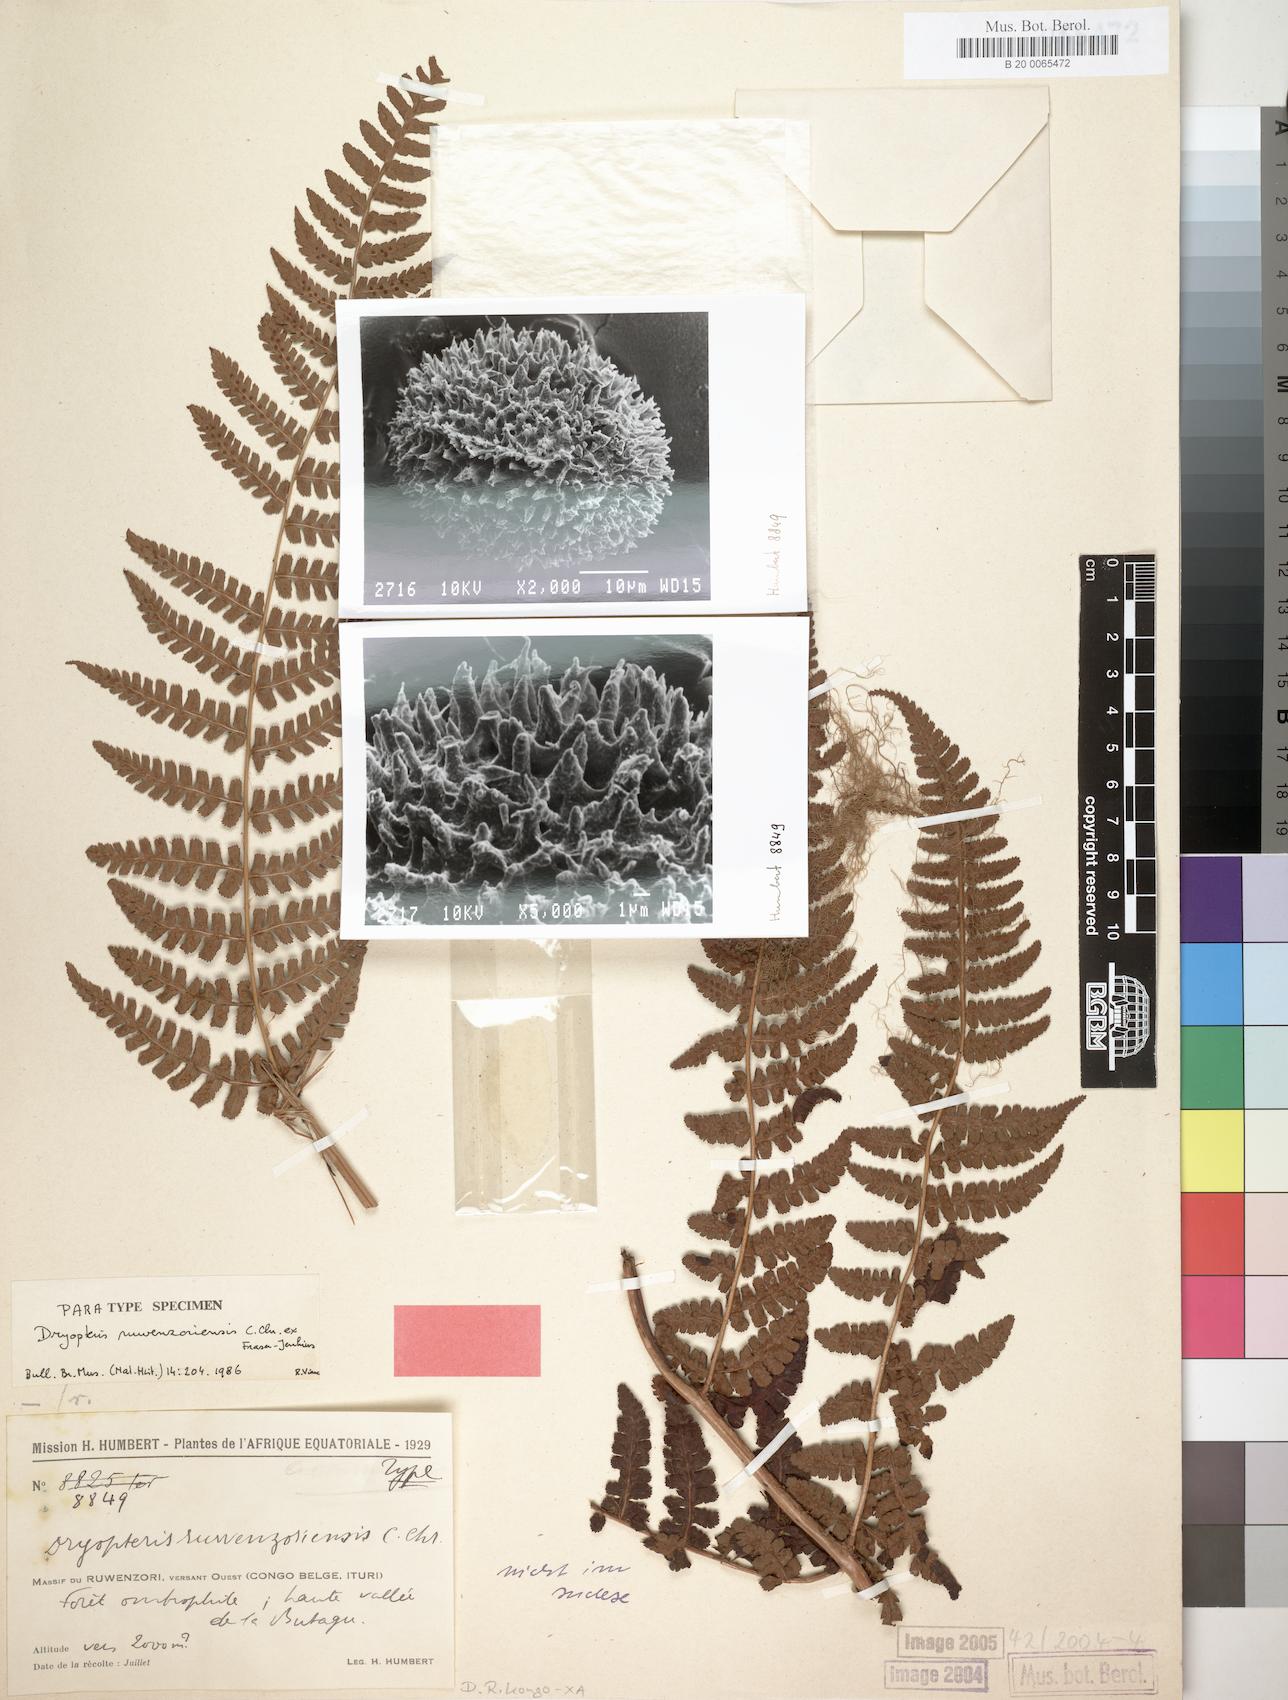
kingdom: Plantae
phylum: Tracheophyta
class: Polypodiopsida
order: Polypodiales
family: Dryopteridaceae
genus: Dryopteris
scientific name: Dryopteris ruwenzoriensis
